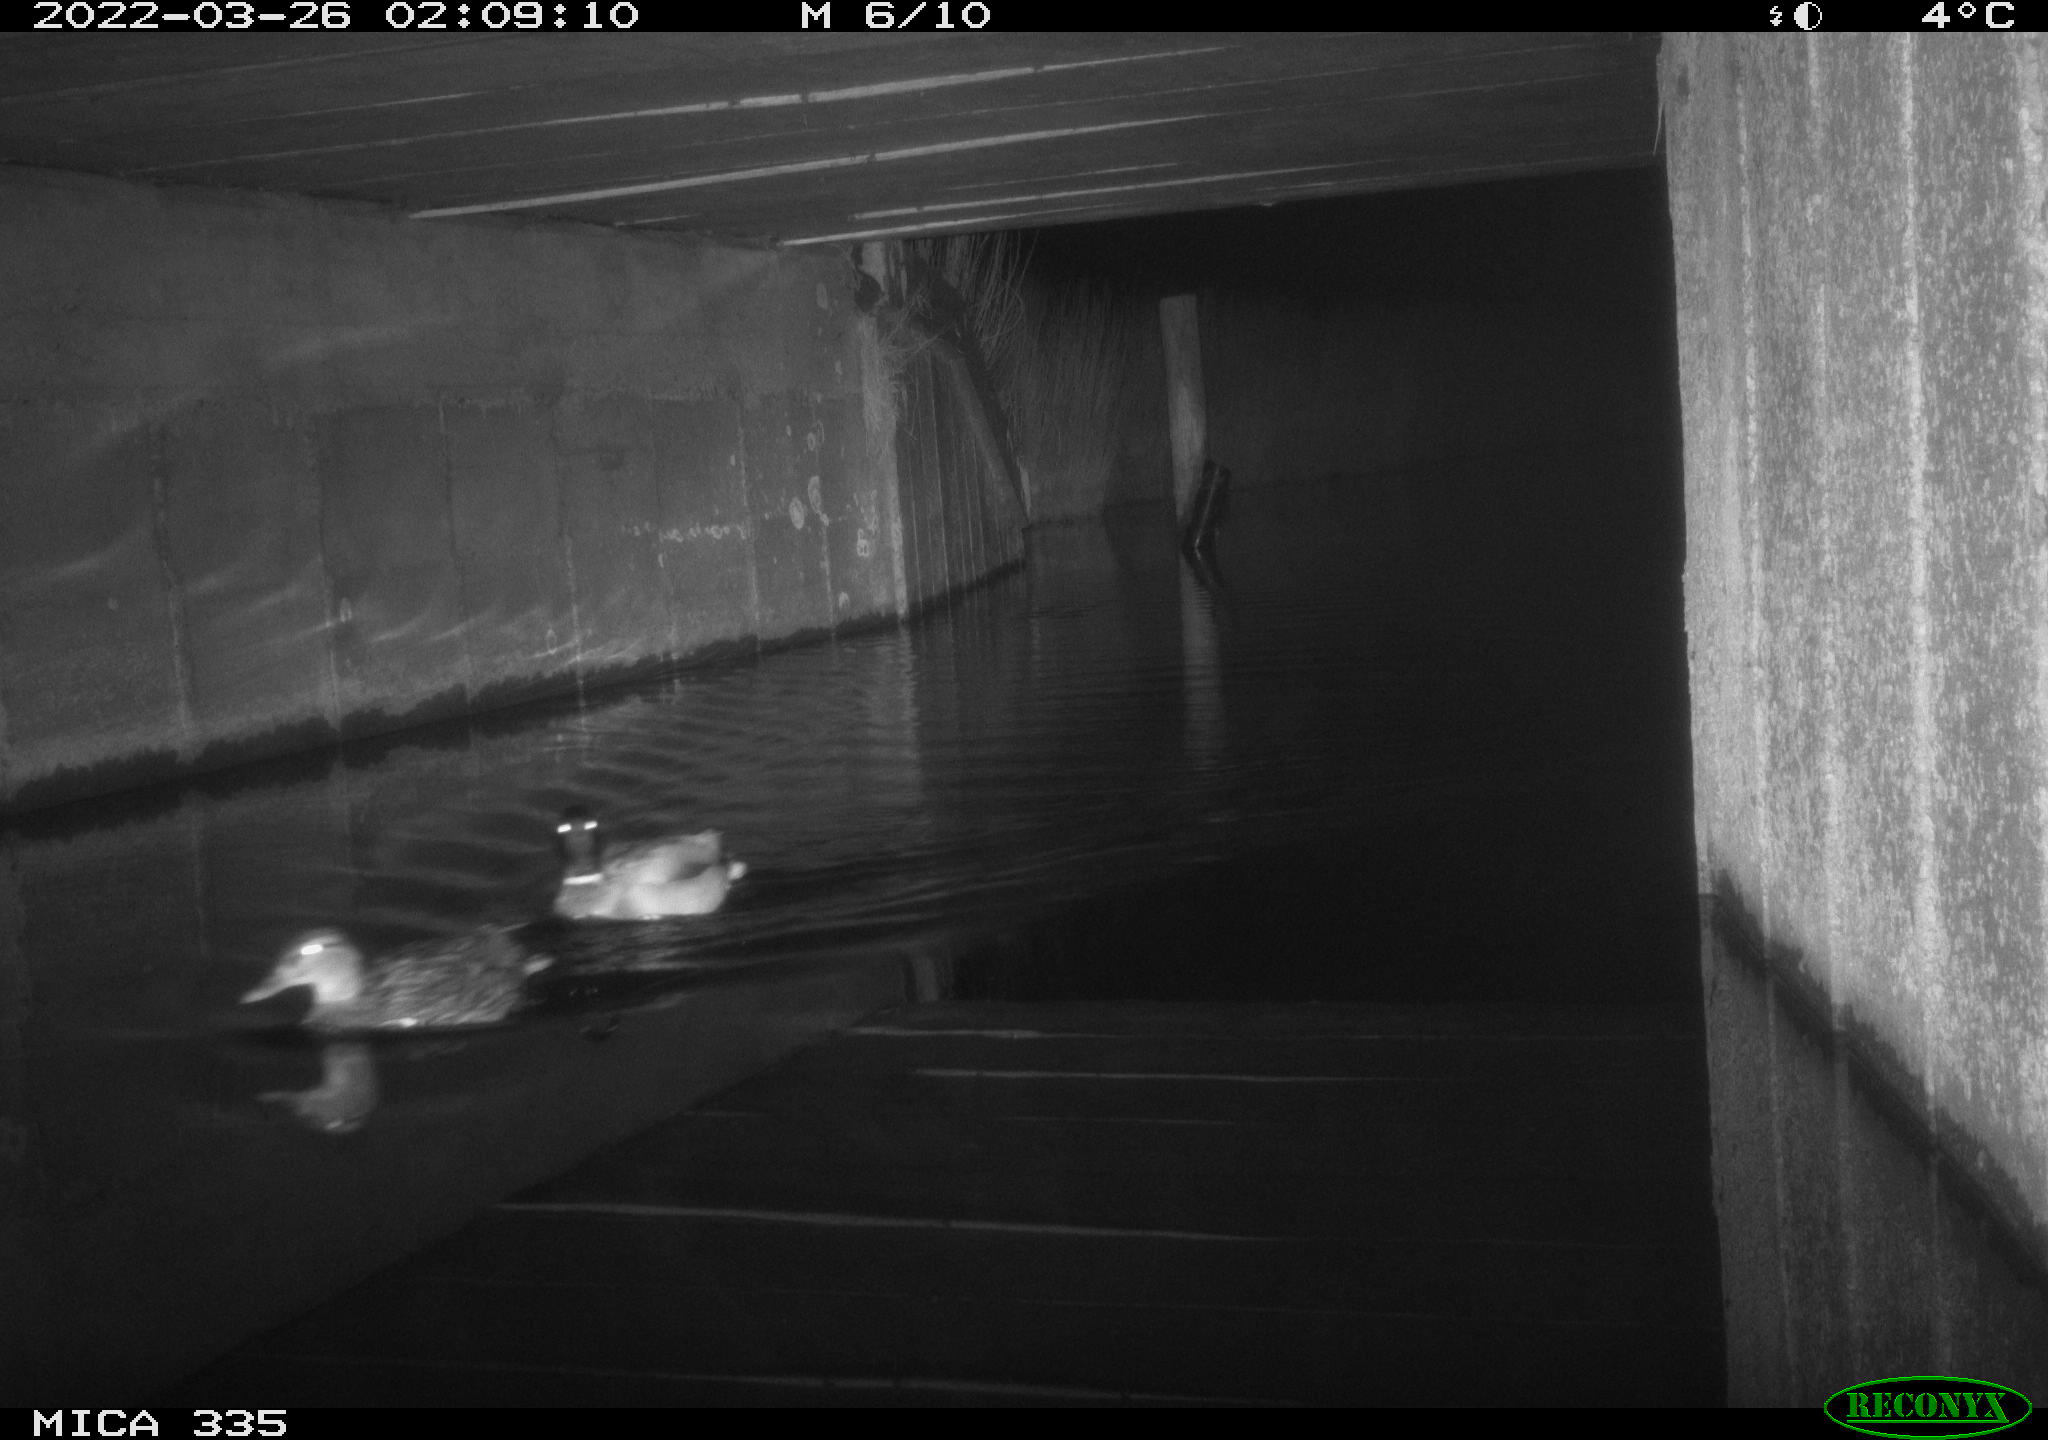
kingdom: Animalia
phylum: Chordata
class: Aves
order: Anseriformes
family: Anatidae
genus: Anas
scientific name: Anas platyrhynchos
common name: Mallard
